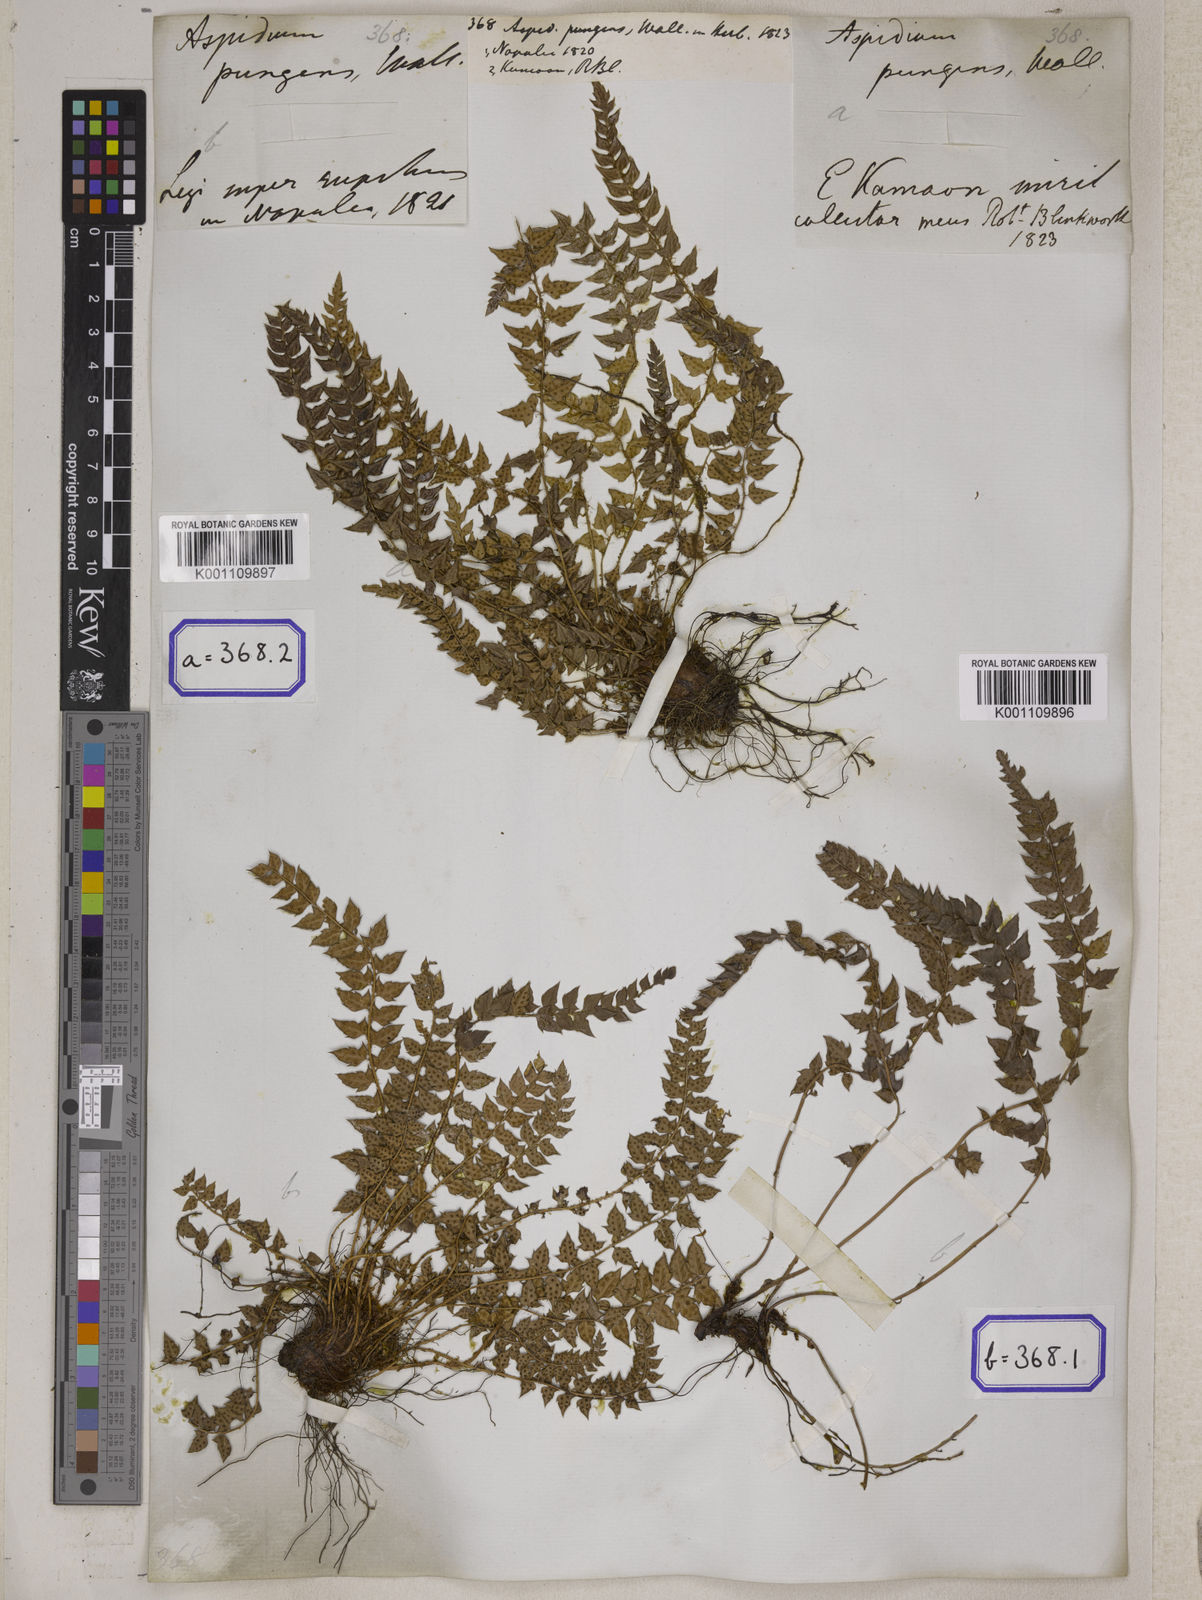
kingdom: Plantae
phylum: Tracheophyta
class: Polypodiopsida
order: Polypodiales
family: Dryopteridaceae
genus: Polystichum
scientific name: Polystichum stimulans
